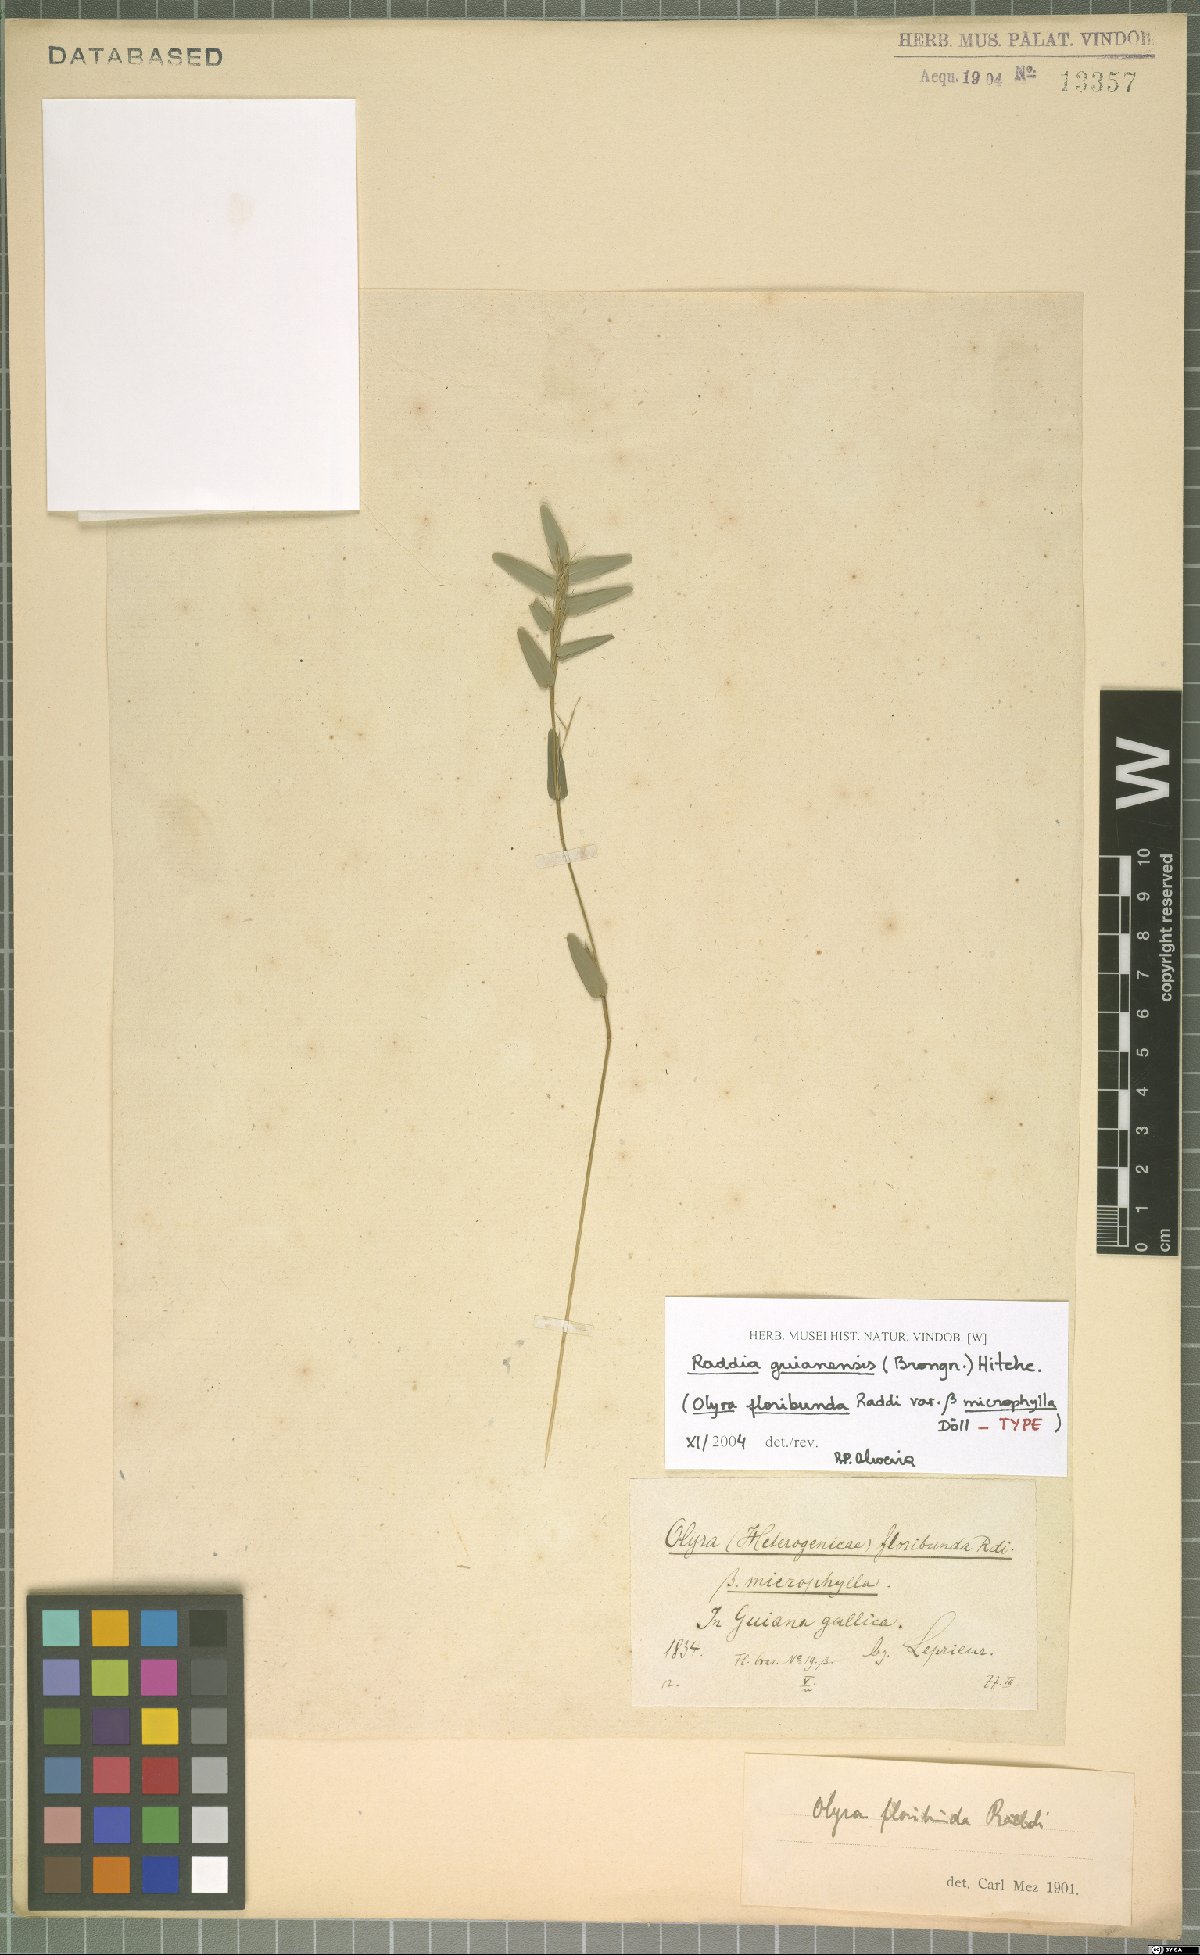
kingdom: Plantae
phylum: Tracheophyta
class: Liliopsida
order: Poales
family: Poaceae
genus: Raddia
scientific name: Raddia guianensis
